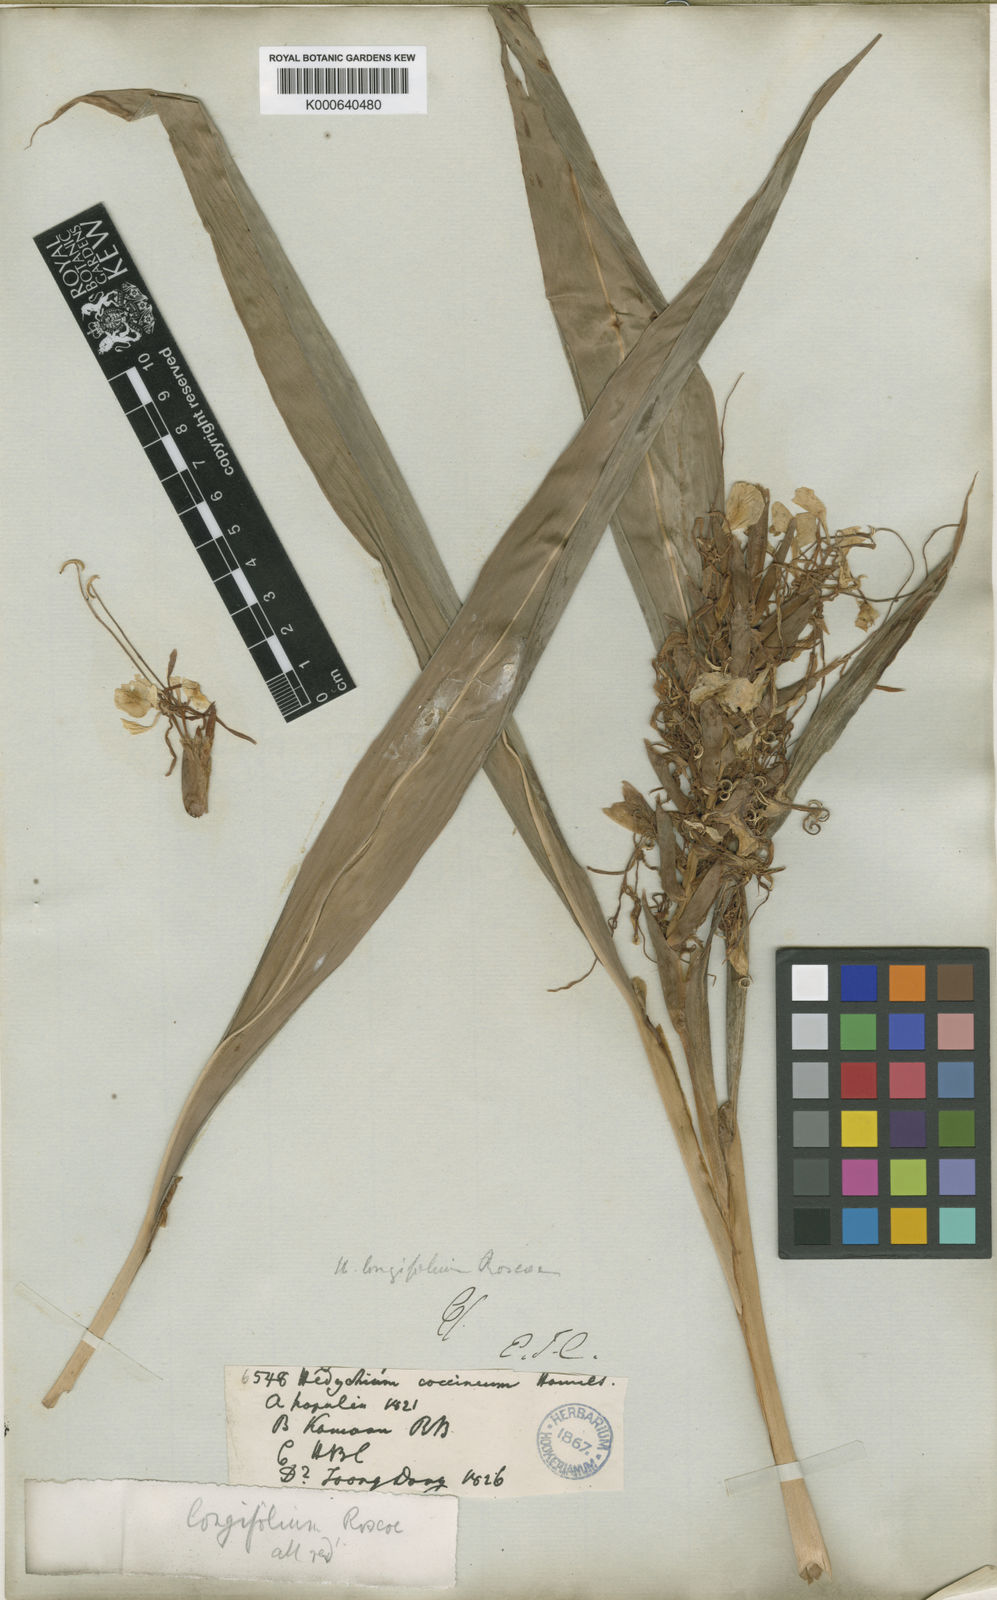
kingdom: Plantae
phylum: Tracheophyta
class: Liliopsida
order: Zingiberales
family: Zingiberaceae
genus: Hedychium
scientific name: Hedychium coccineum
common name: Red ginger-lily
